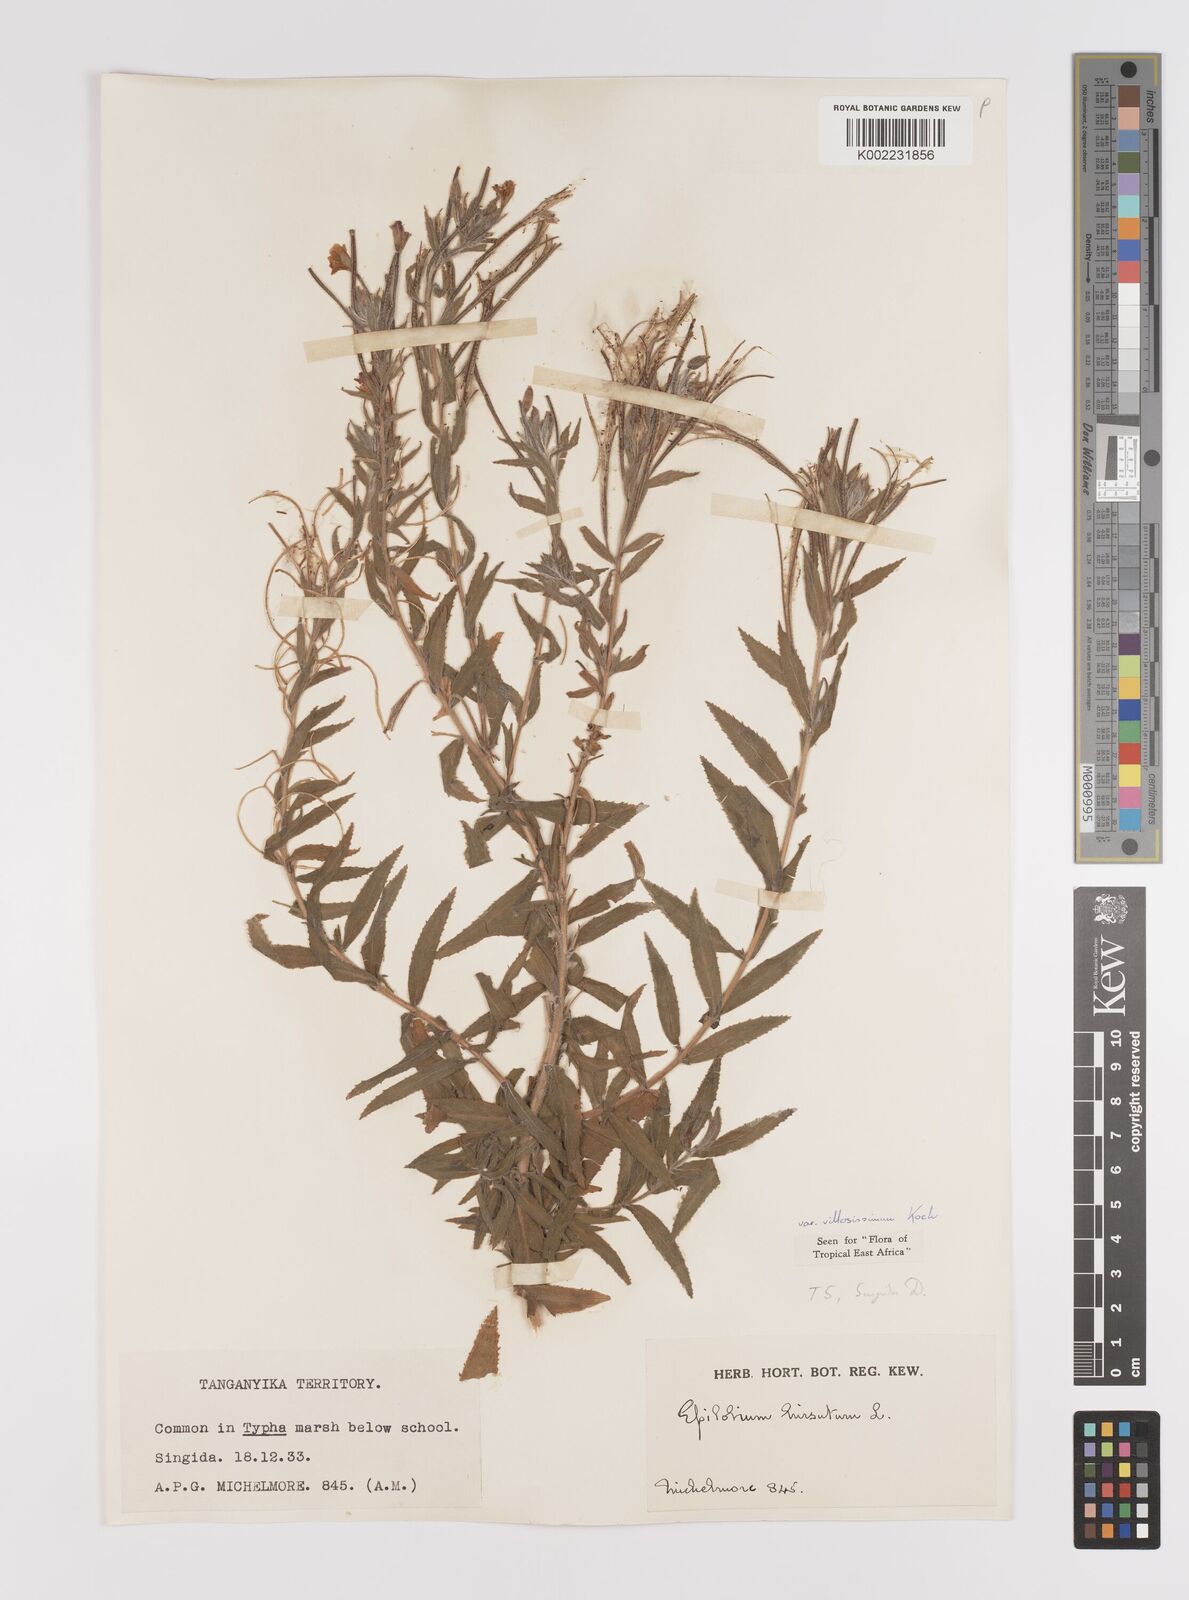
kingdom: Plantae
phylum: Tracheophyta
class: Magnoliopsida
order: Myrtales
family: Onagraceae
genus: Epilobium
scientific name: Epilobium hirsutum
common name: Great willowherb
